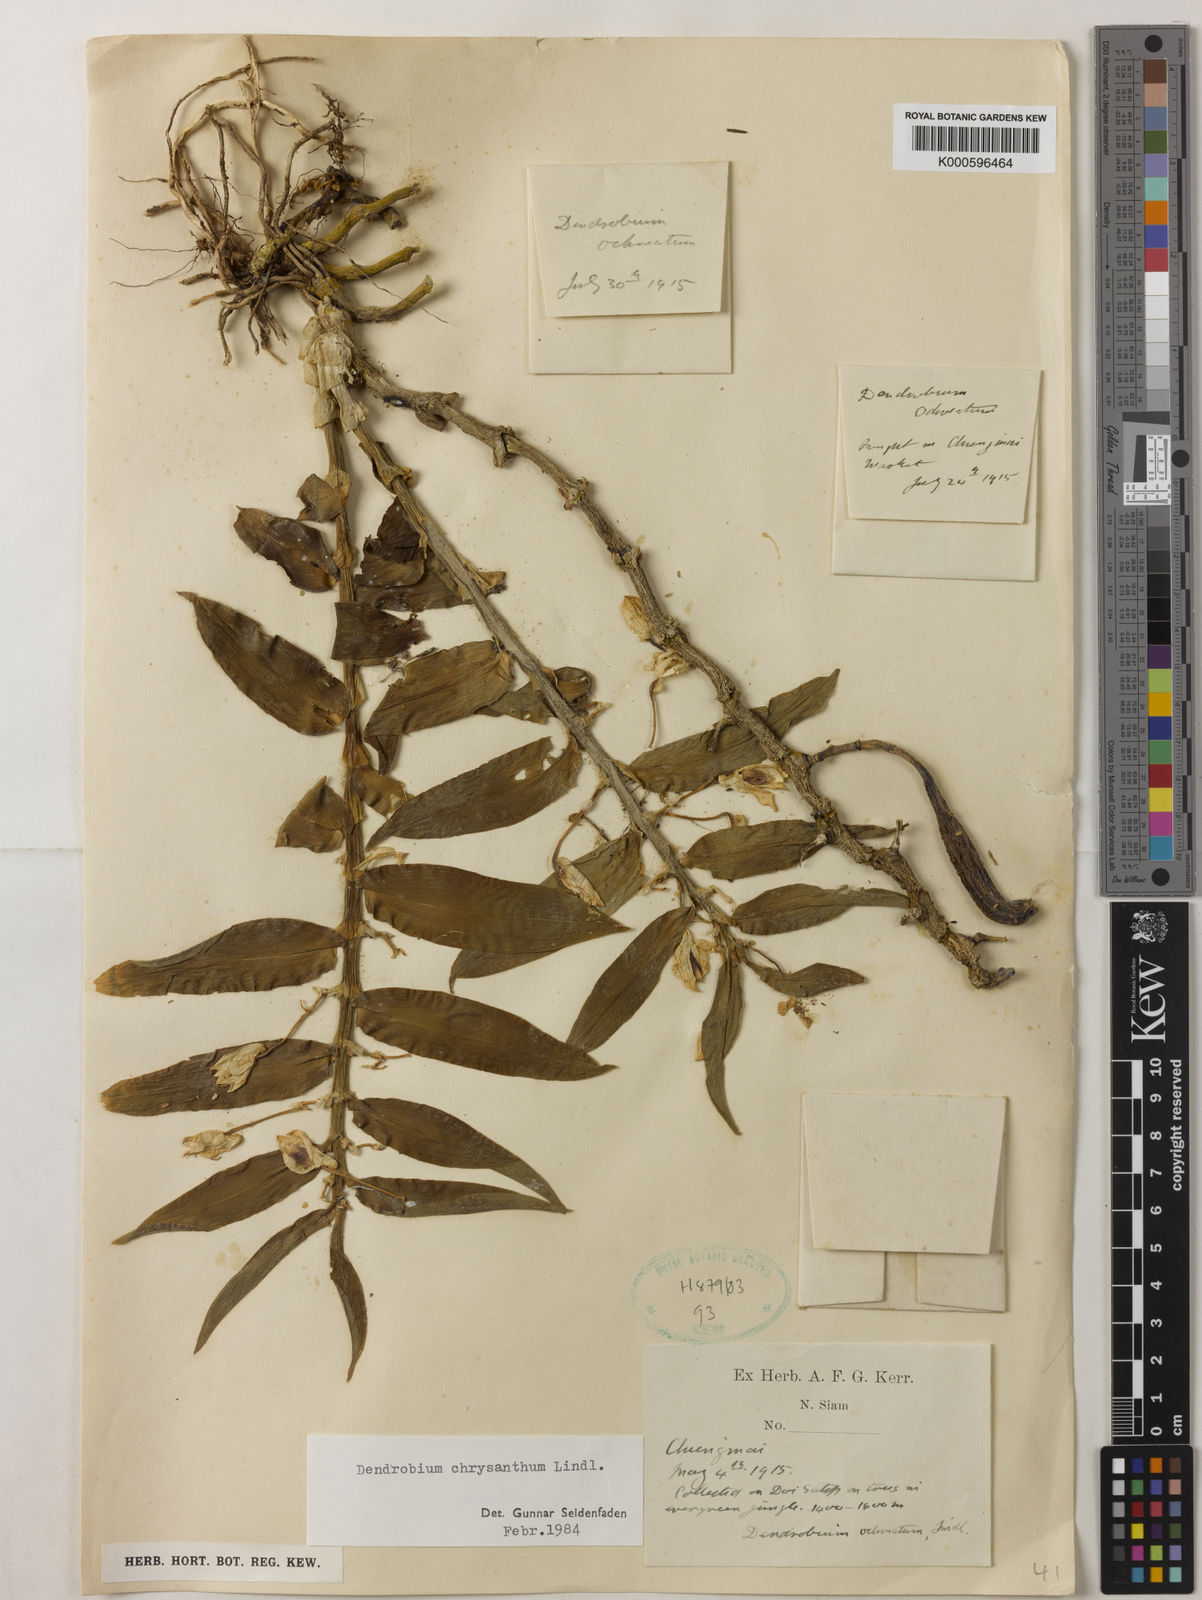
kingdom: Plantae
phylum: Tracheophyta
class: Liliopsida
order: Asparagales
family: Orchidaceae
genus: Dendrobium
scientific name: Dendrobium chrysanthum
